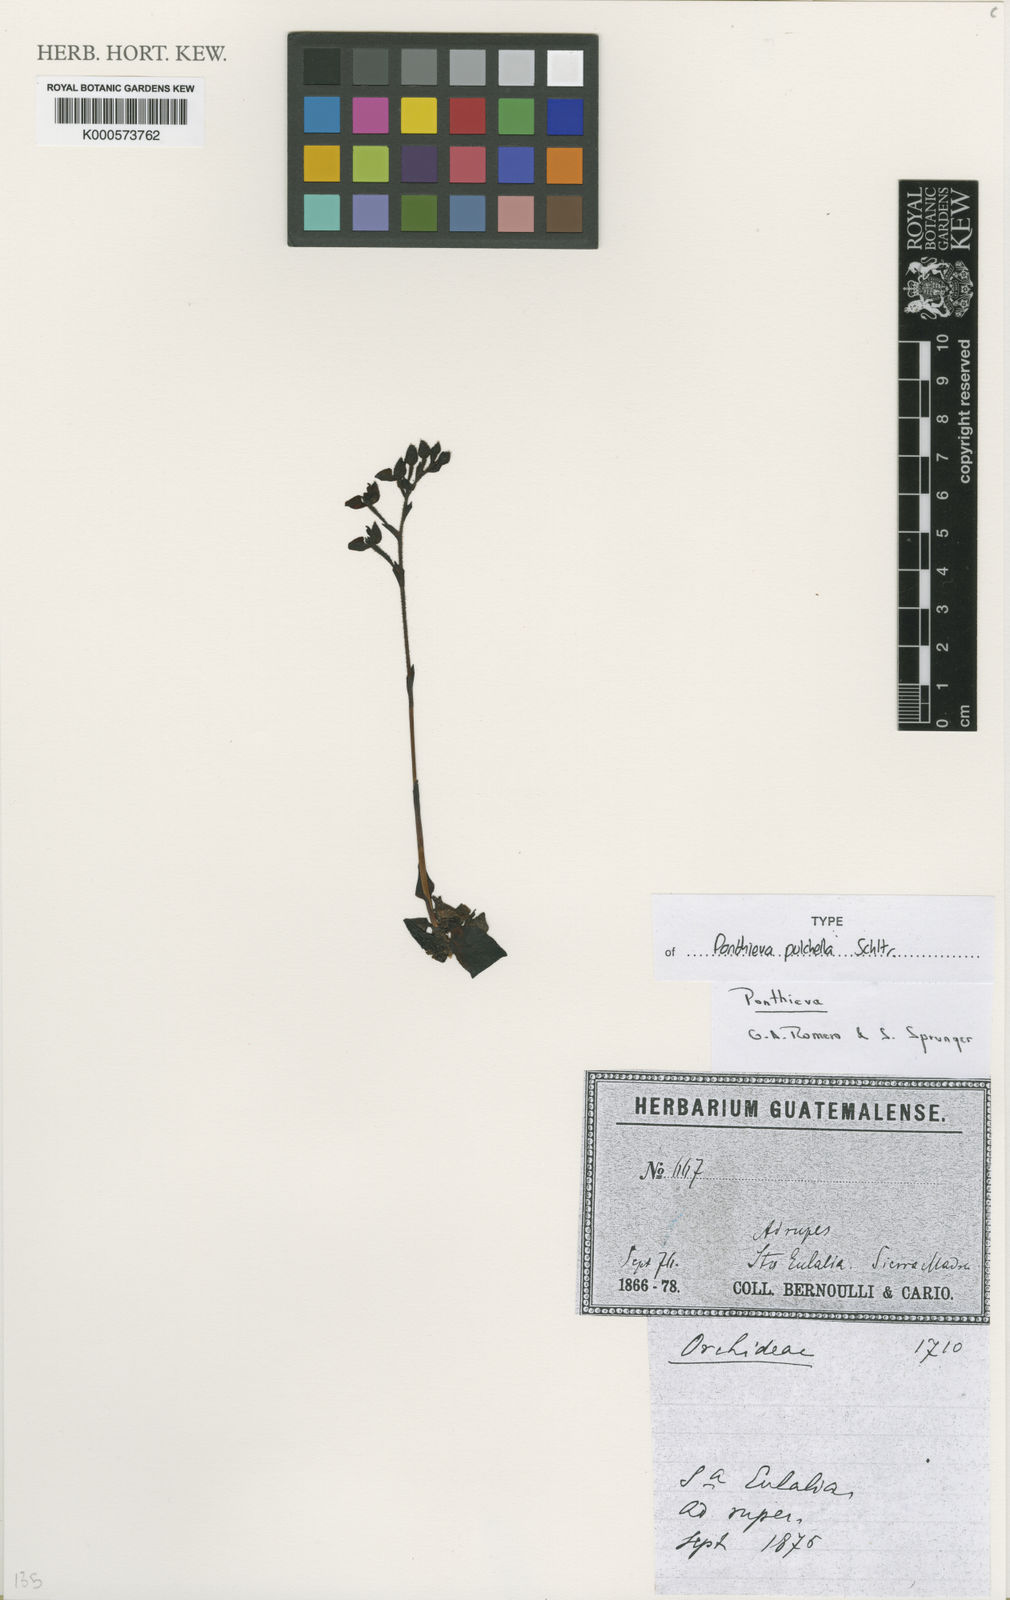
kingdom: Plantae
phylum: Tracheophyta
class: Liliopsida
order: Asparagales
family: Orchidaceae
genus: Ponthieva
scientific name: Ponthieva pulchella
